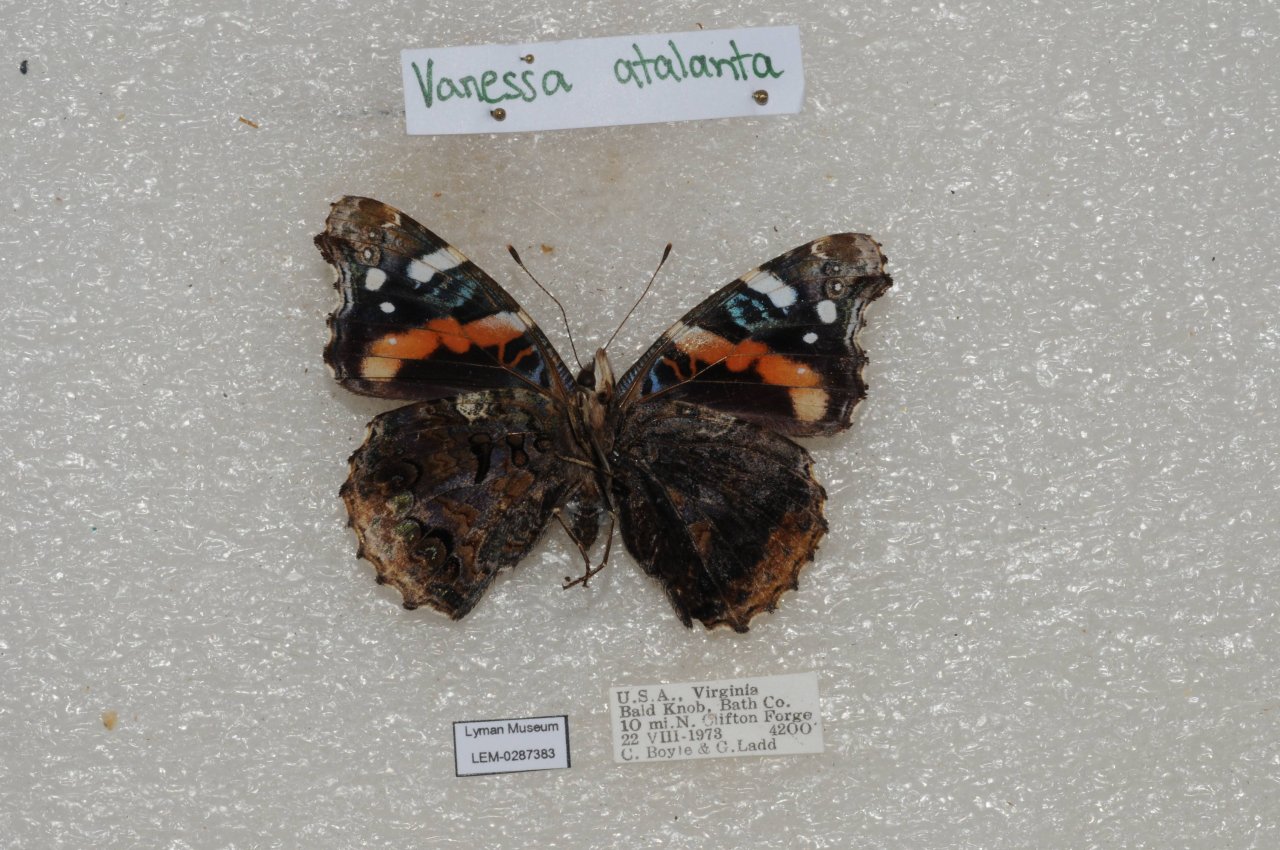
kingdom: Animalia
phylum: Arthropoda
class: Insecta
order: Lepidoptera
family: Nymphalidae
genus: Vanessa
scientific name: Vanessa atalanta
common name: Red Admiral
